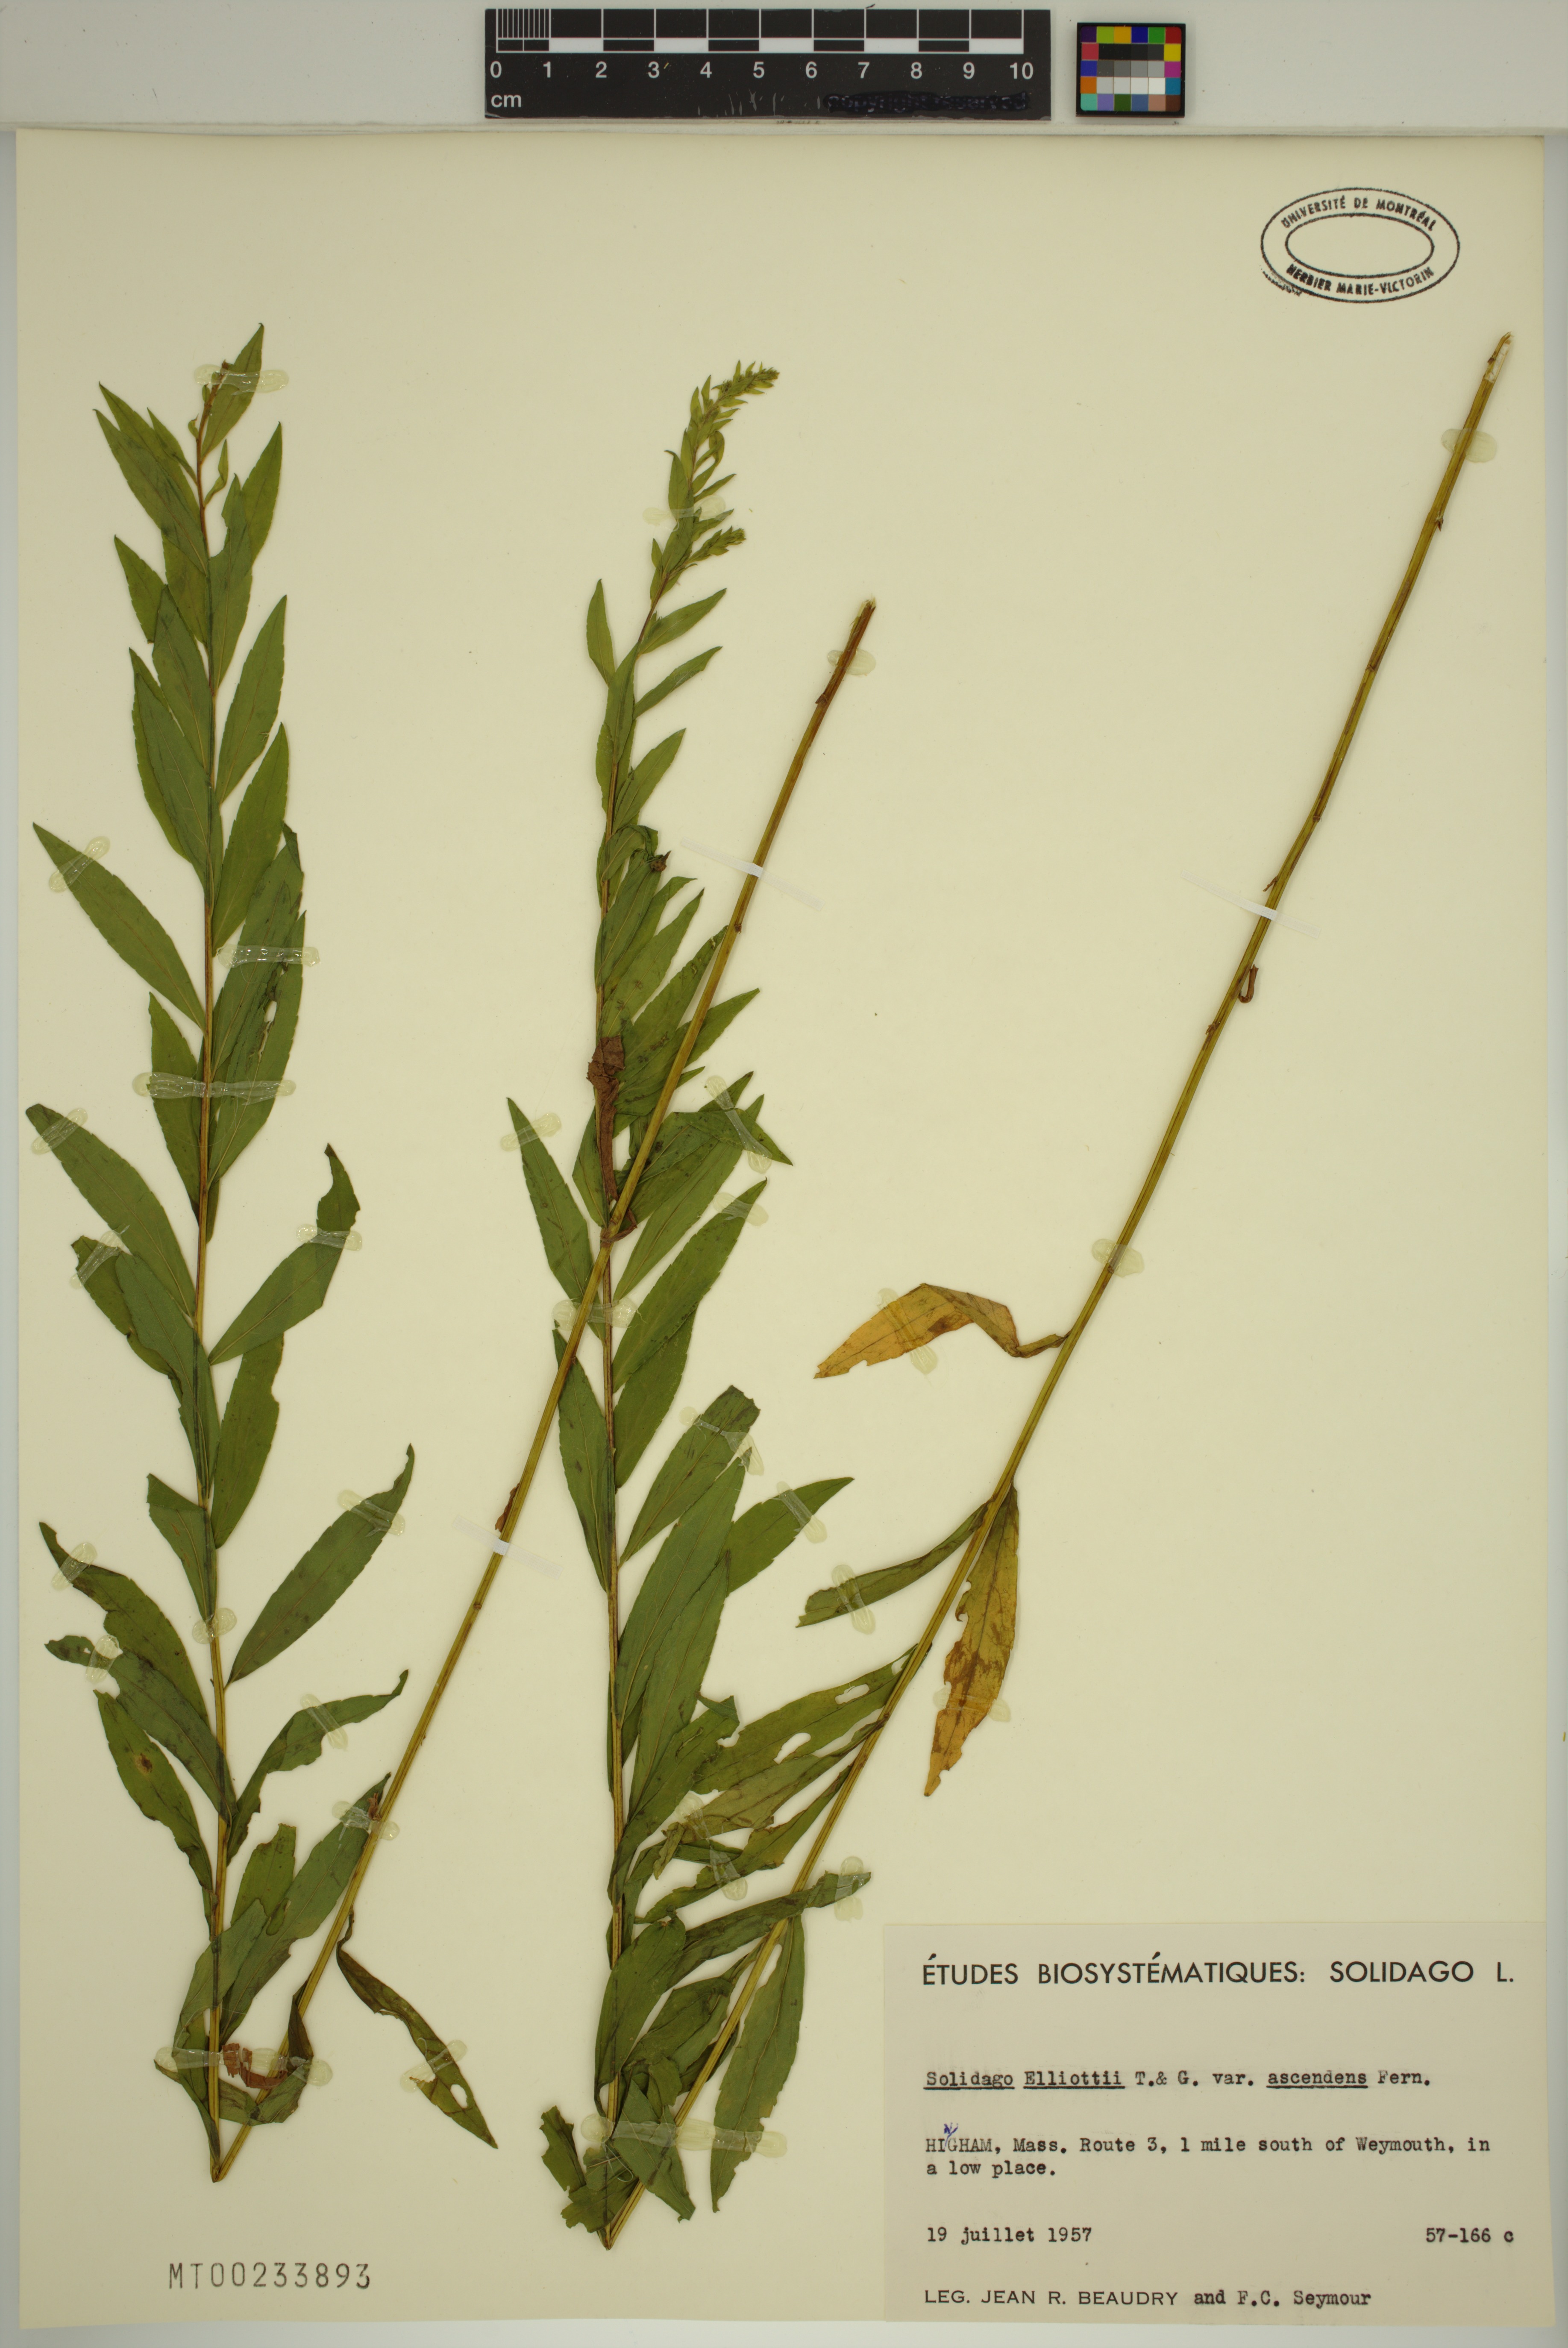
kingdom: Plantae
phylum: Tracheophyta
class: Magnoliopsida
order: Asterales
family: Asteraceae
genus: Solidago
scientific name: Solidago latissimifolia
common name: Elliott's goldenrod
